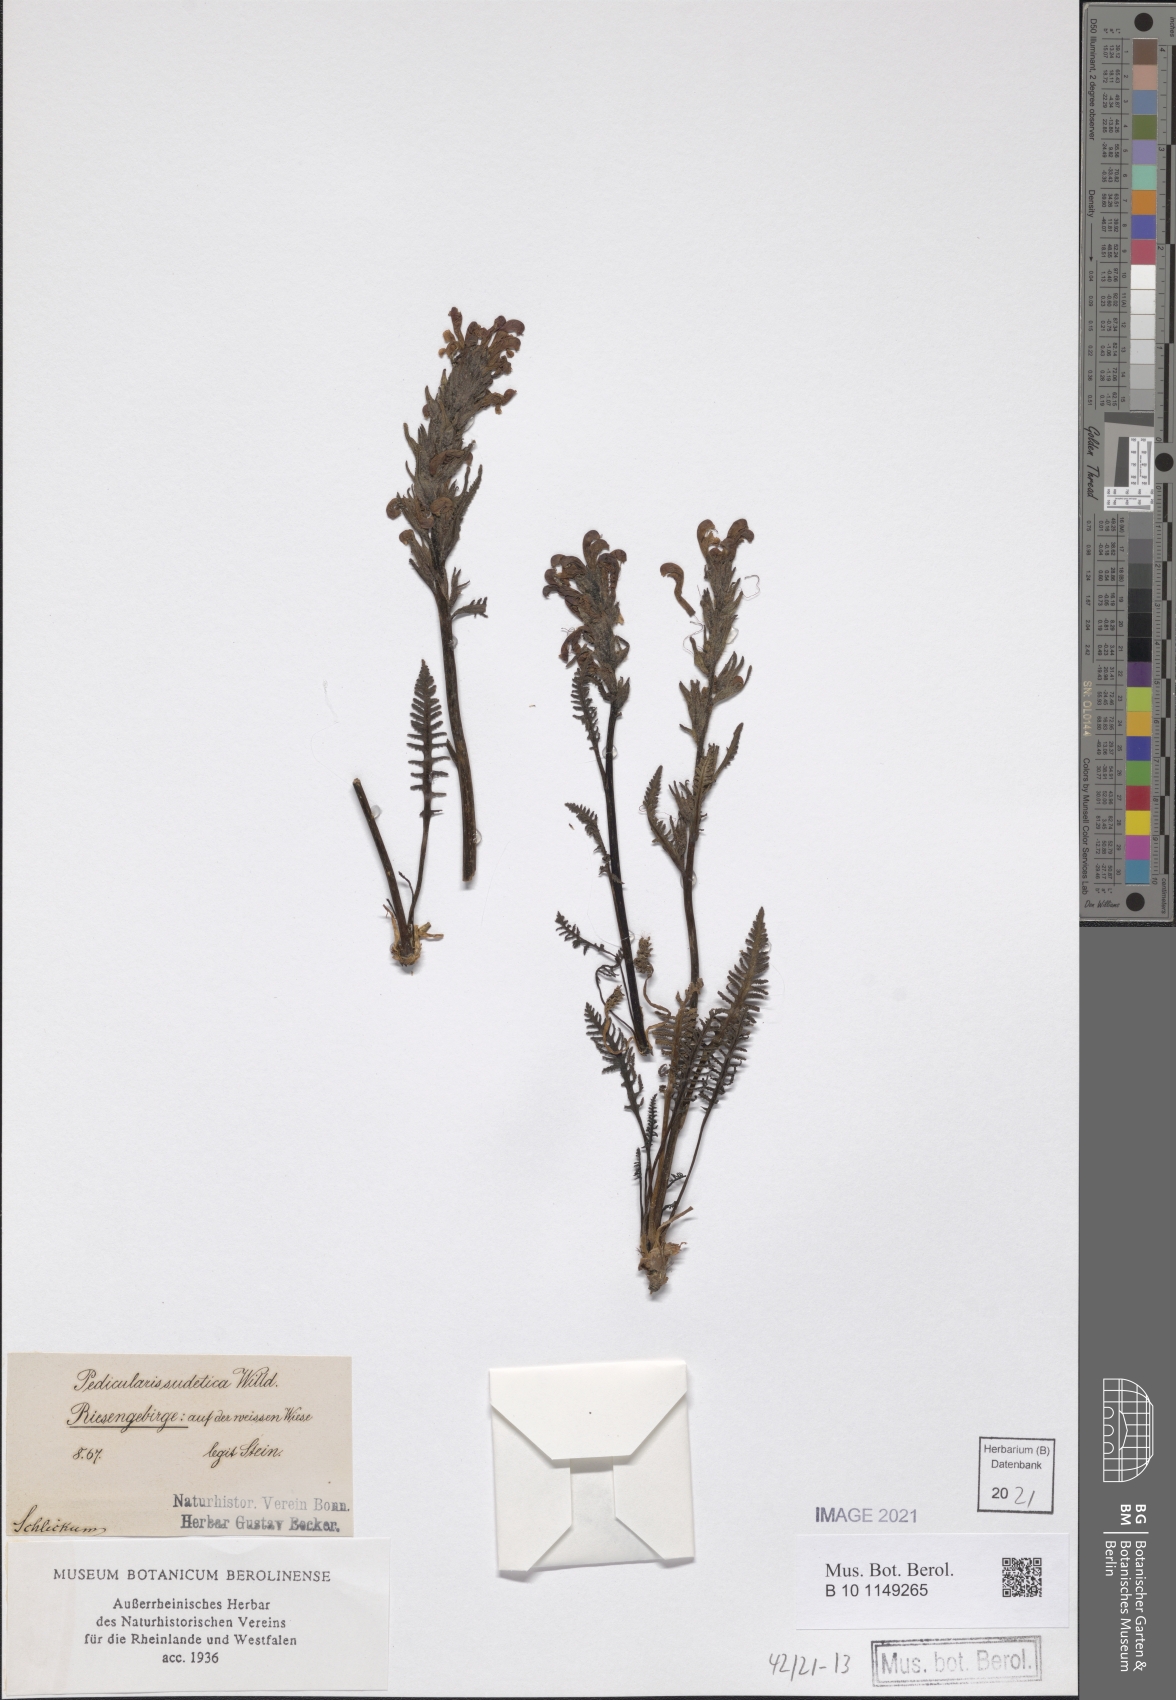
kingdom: Plantae
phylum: Tracheophyta
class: Magnoliopsida
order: Lamiales
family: Orobanchaceae
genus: Pedicularis
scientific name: Pedicularis sudetica
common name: Sudeten lousewort
